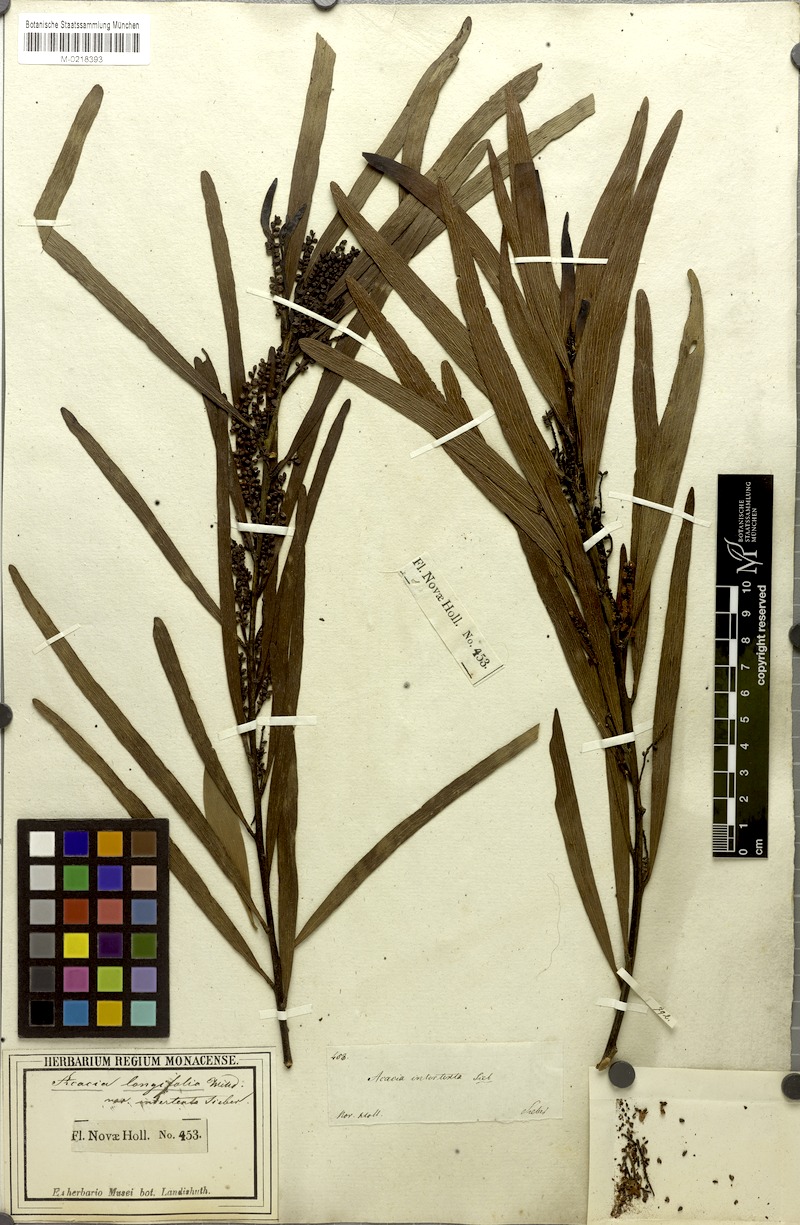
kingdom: Plantae
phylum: Tracheophyta
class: Magnoliopsida
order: Fabales
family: Fabaceae
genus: Acacia
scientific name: Acacia obtusifolia
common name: Stiff-leaf wattle
